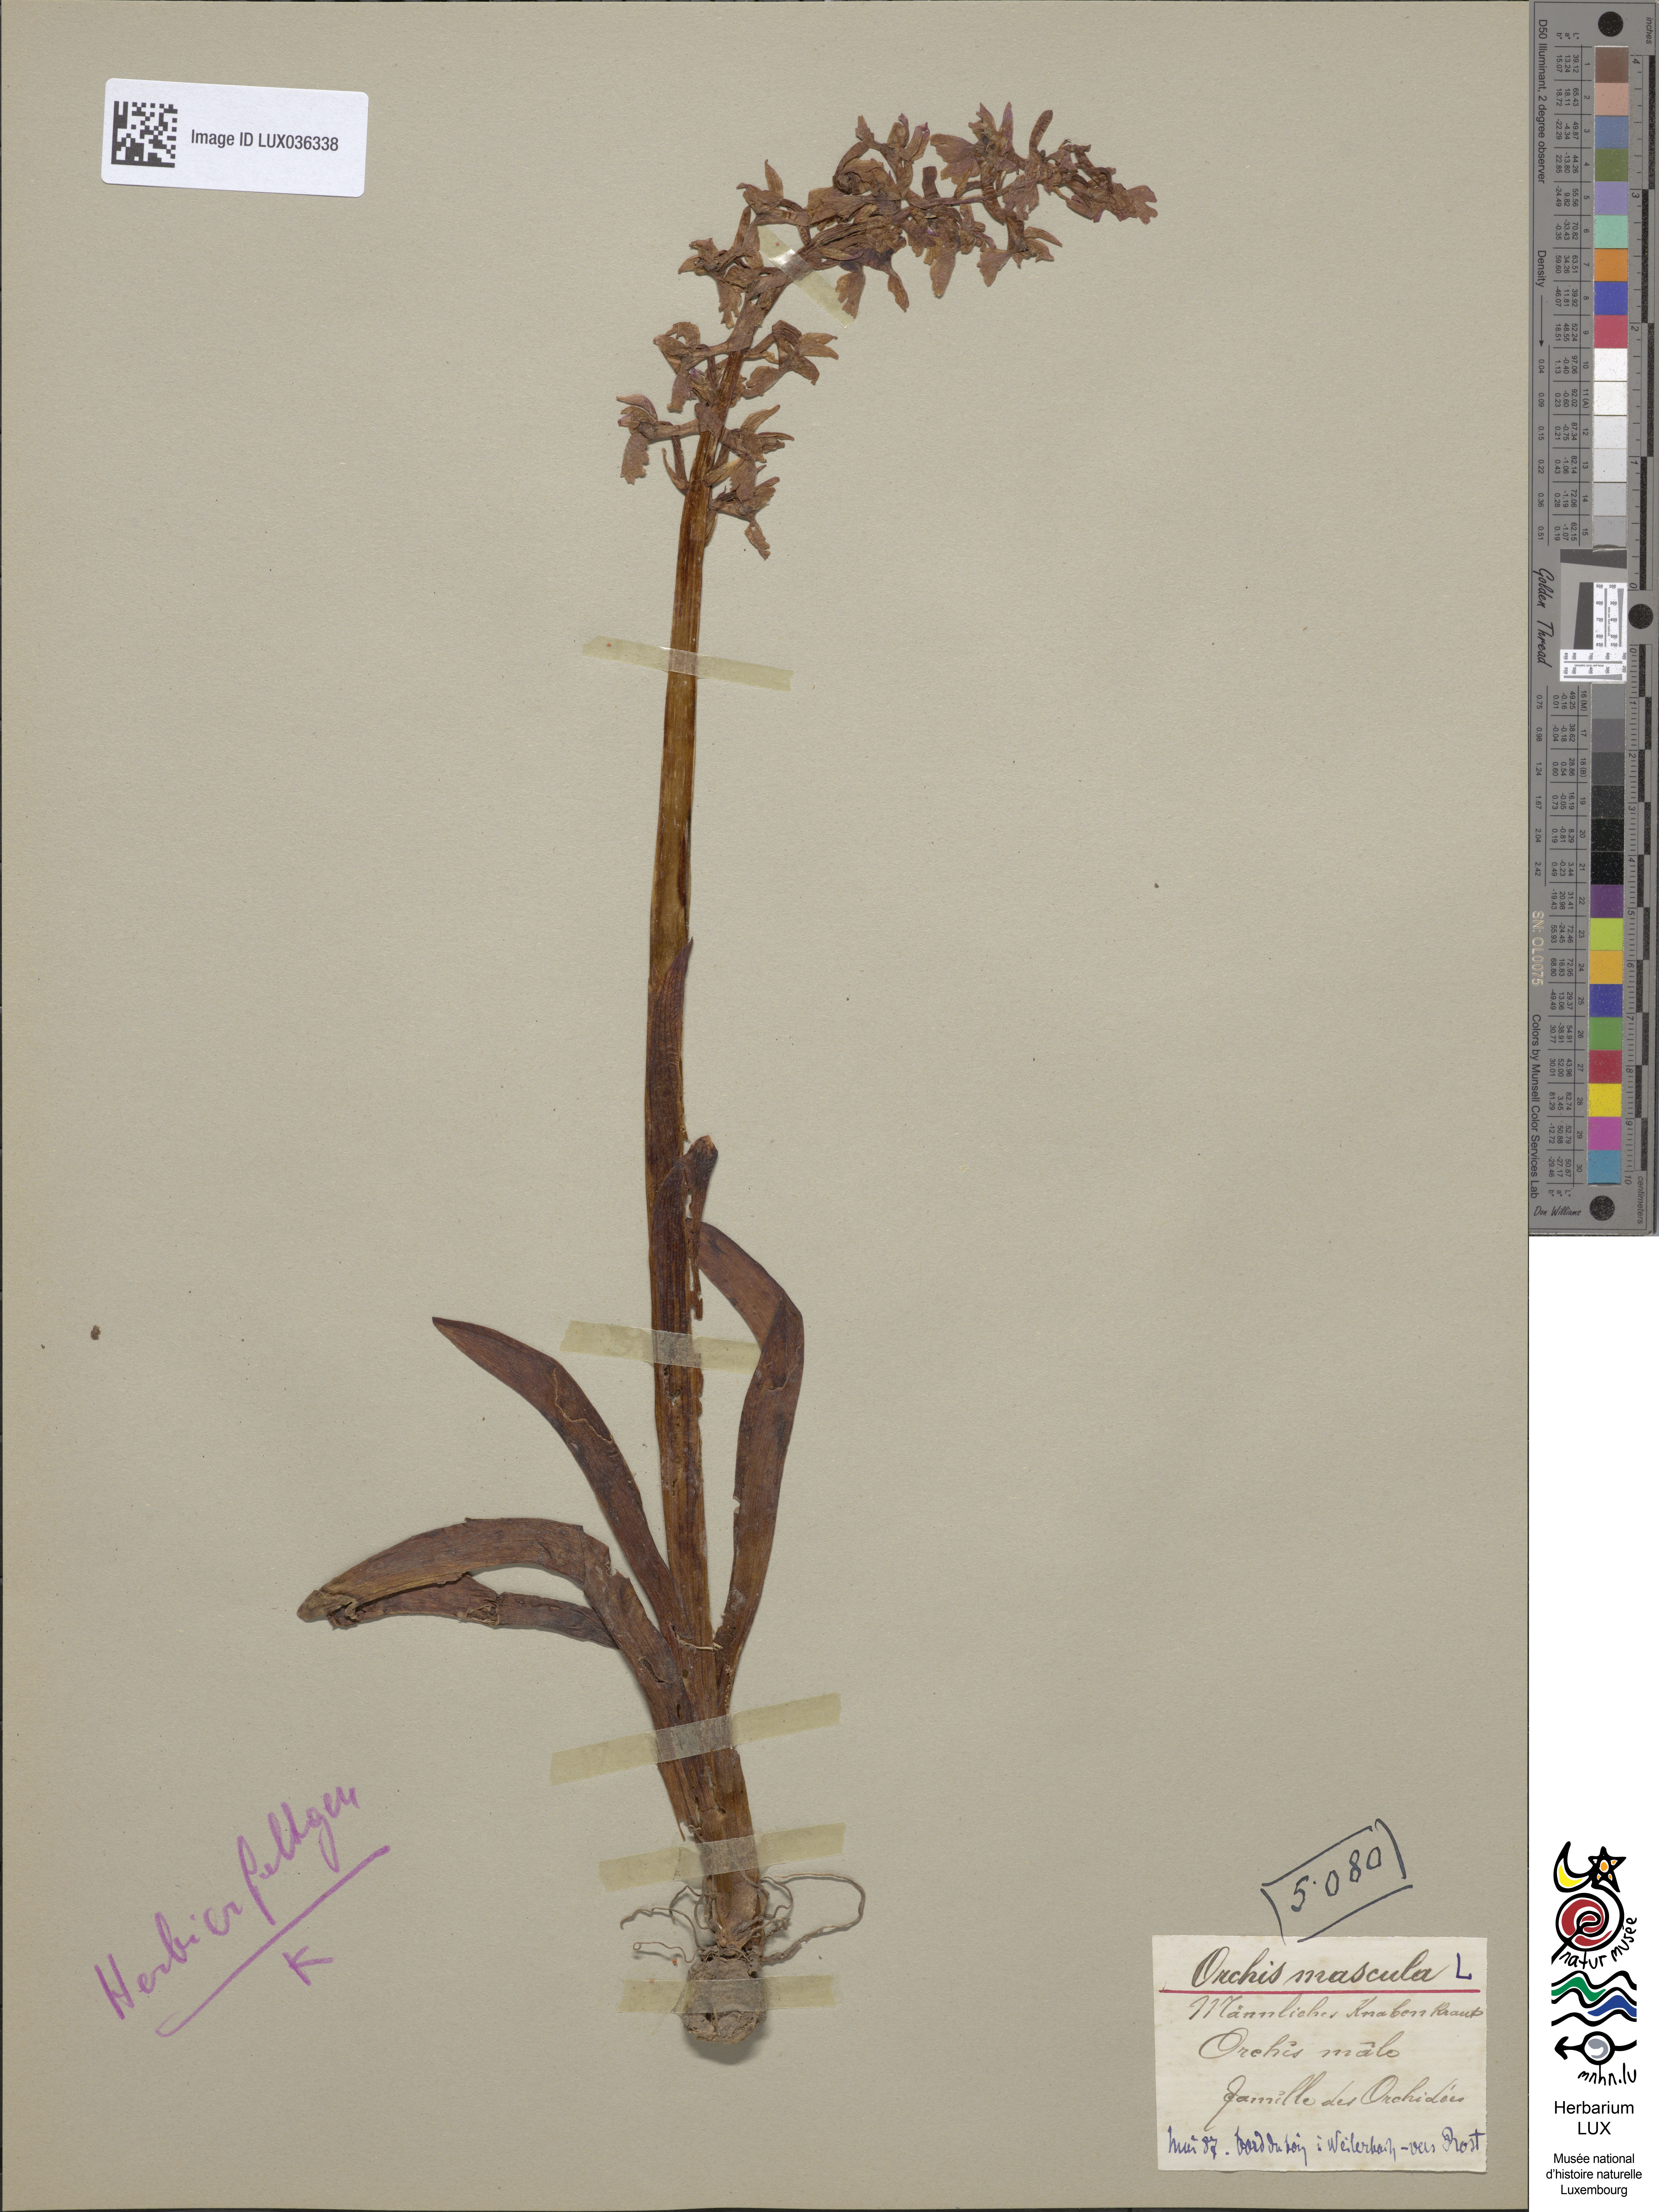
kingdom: Plantae
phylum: Tracheophyta
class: Liliopsida
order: Asparagales
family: Orchidaceae
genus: Orchis
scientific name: Orchis mascula
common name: Early-purple orchid
